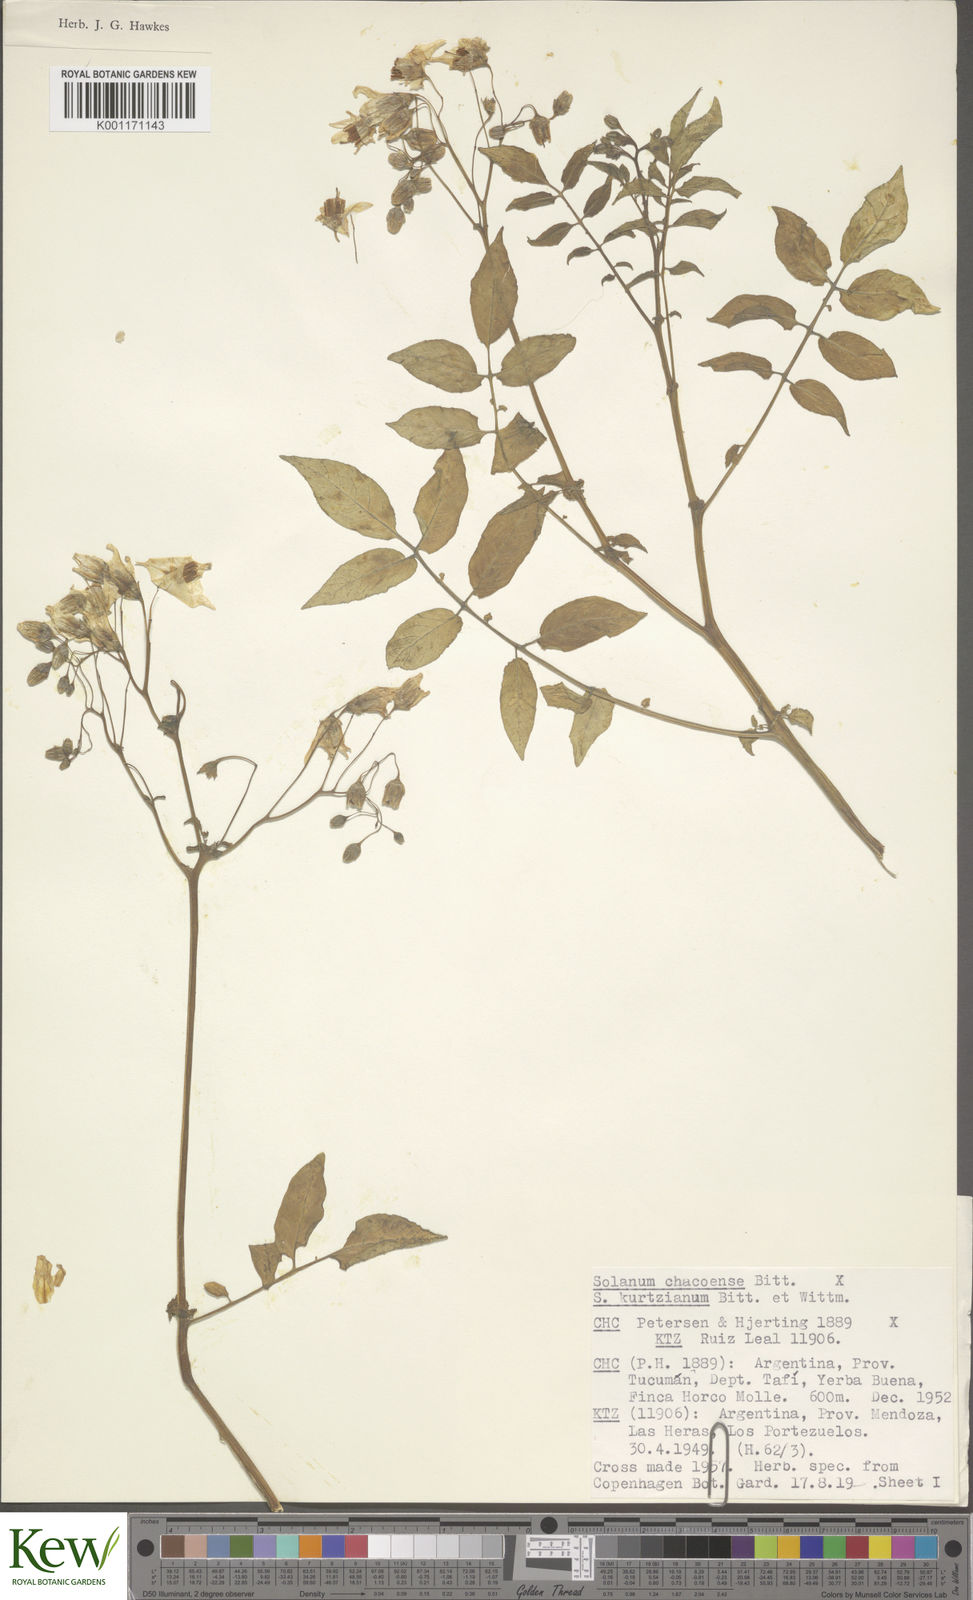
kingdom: Plantae
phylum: Tracheophyta
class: Magnoliopsida
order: Solanales
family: Solanaceae
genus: Solanum
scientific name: Solanum chacoense
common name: Chaco potato
